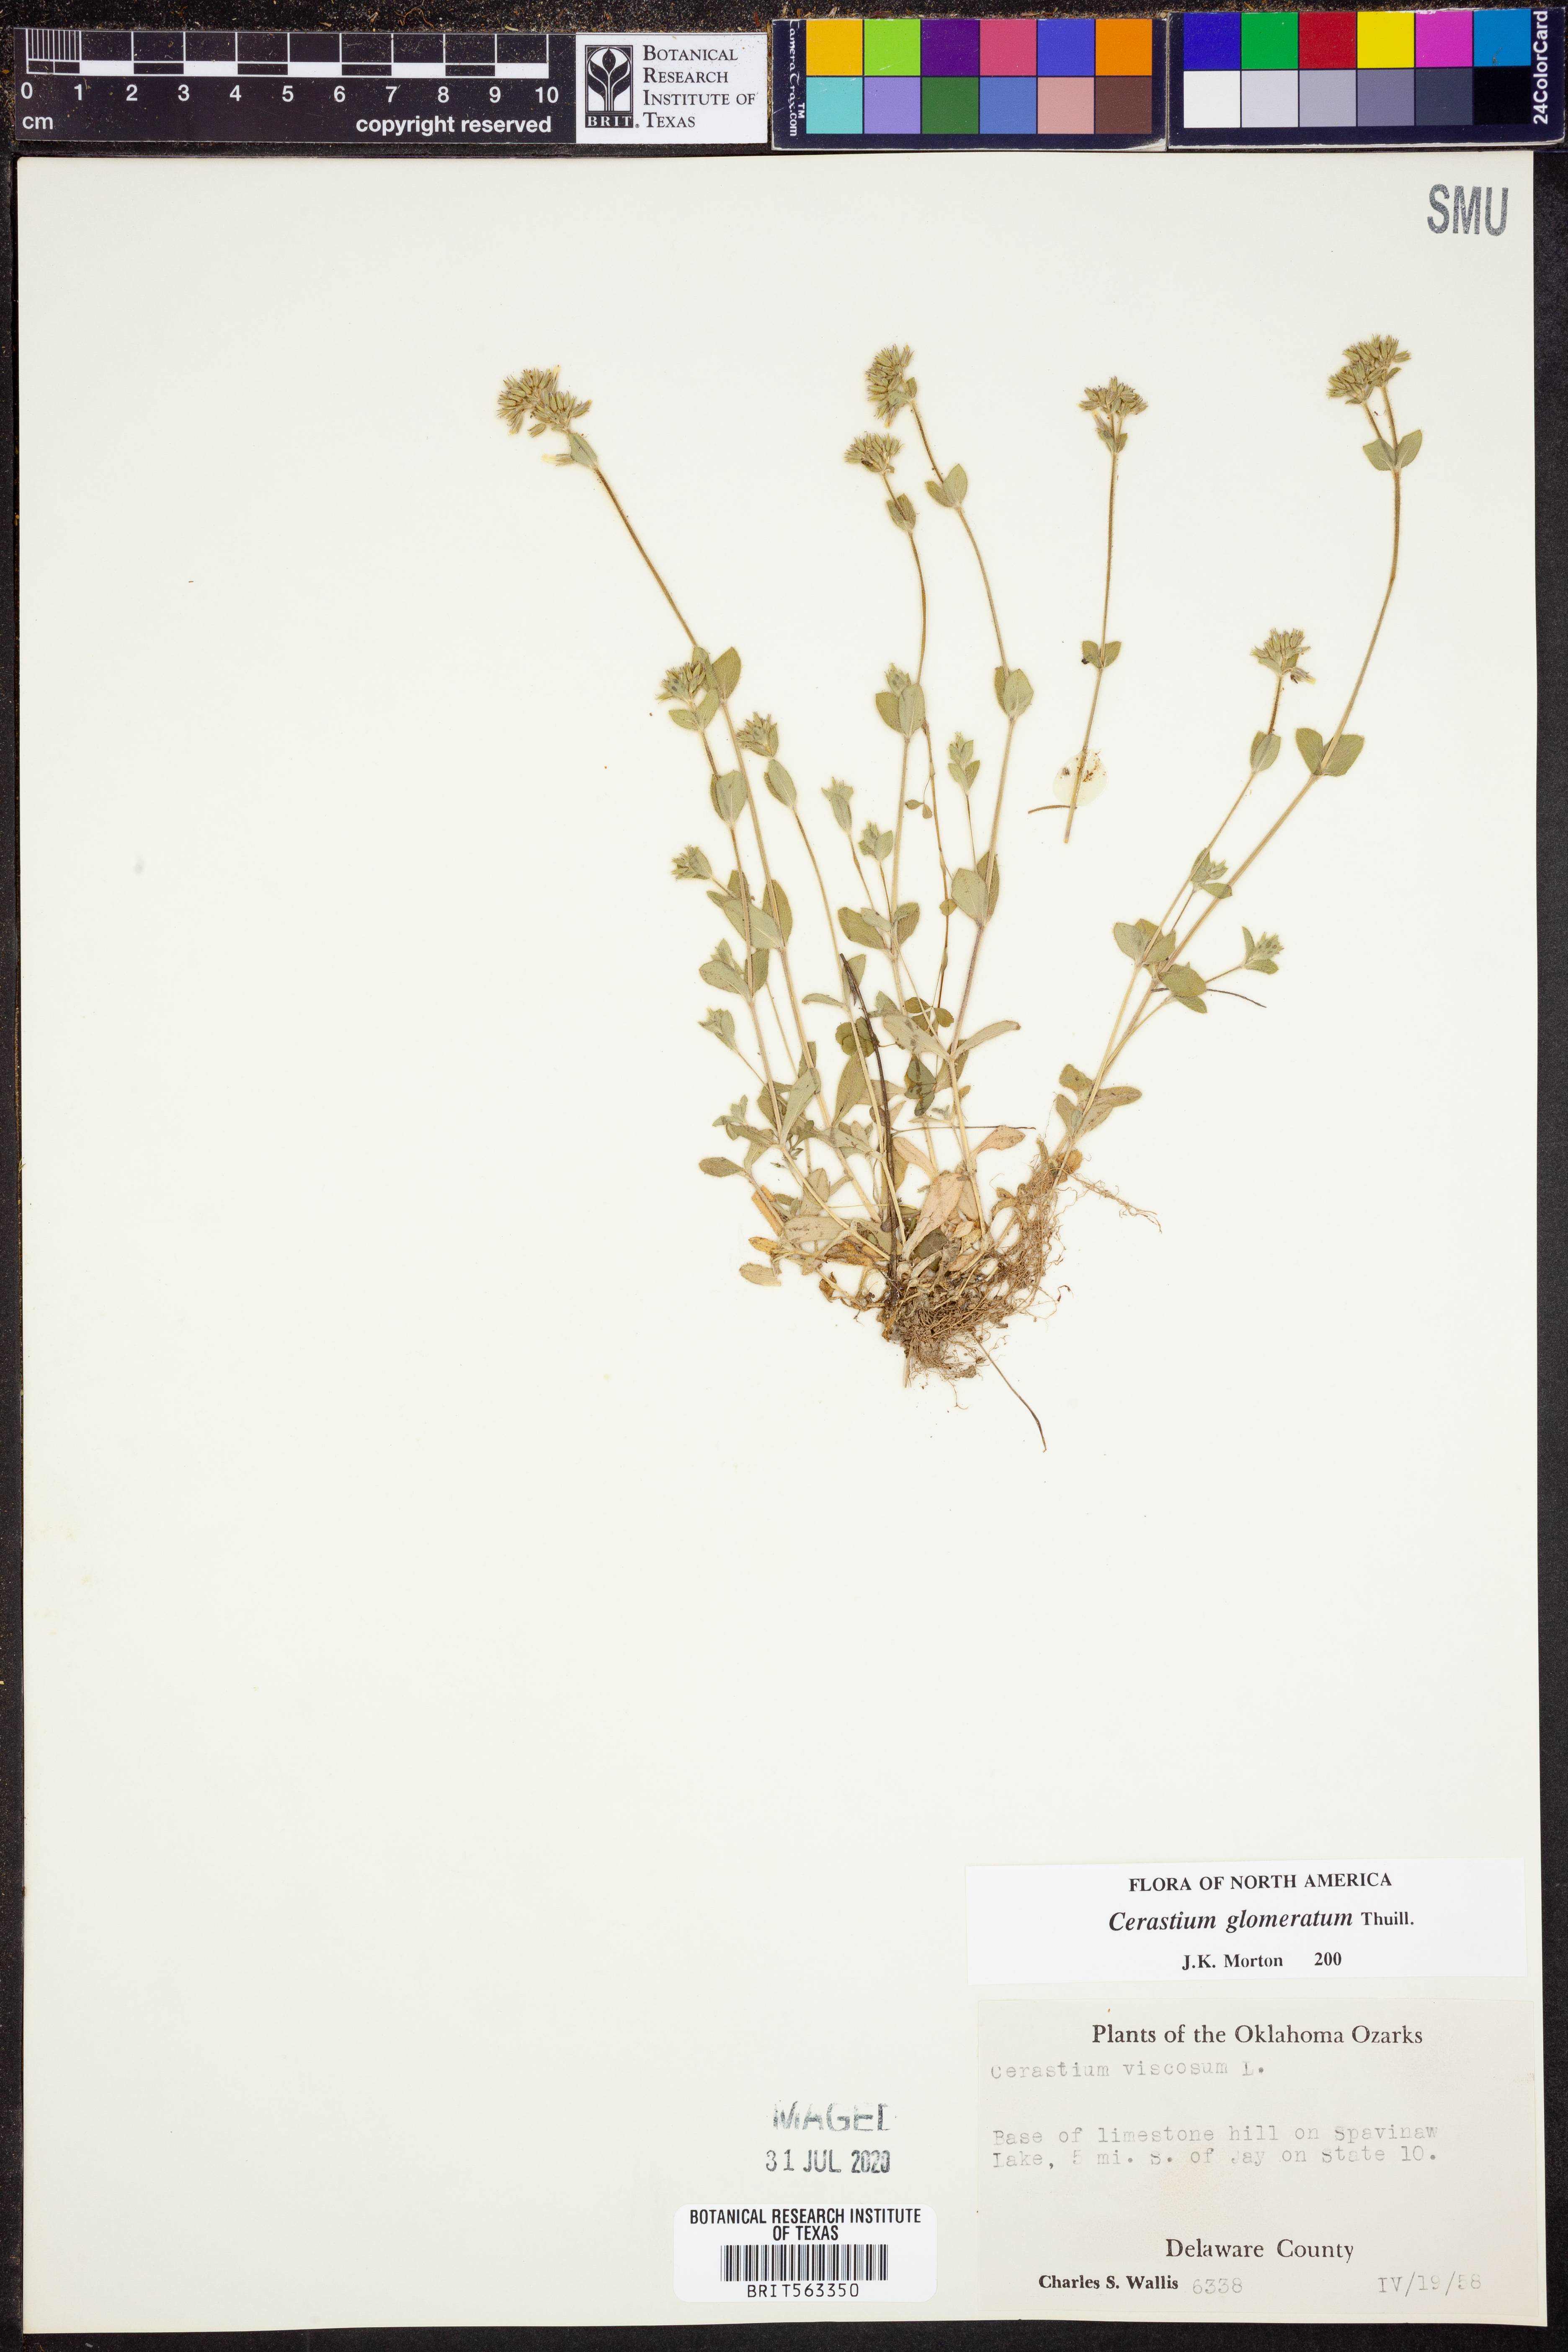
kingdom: Plantae
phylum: Tracheophyta
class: Magnoliopsida
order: Caryophyllales
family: Caryophyllaceae
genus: Cerastium
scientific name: Cerastium glomeratum
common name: Sticky chickweed
